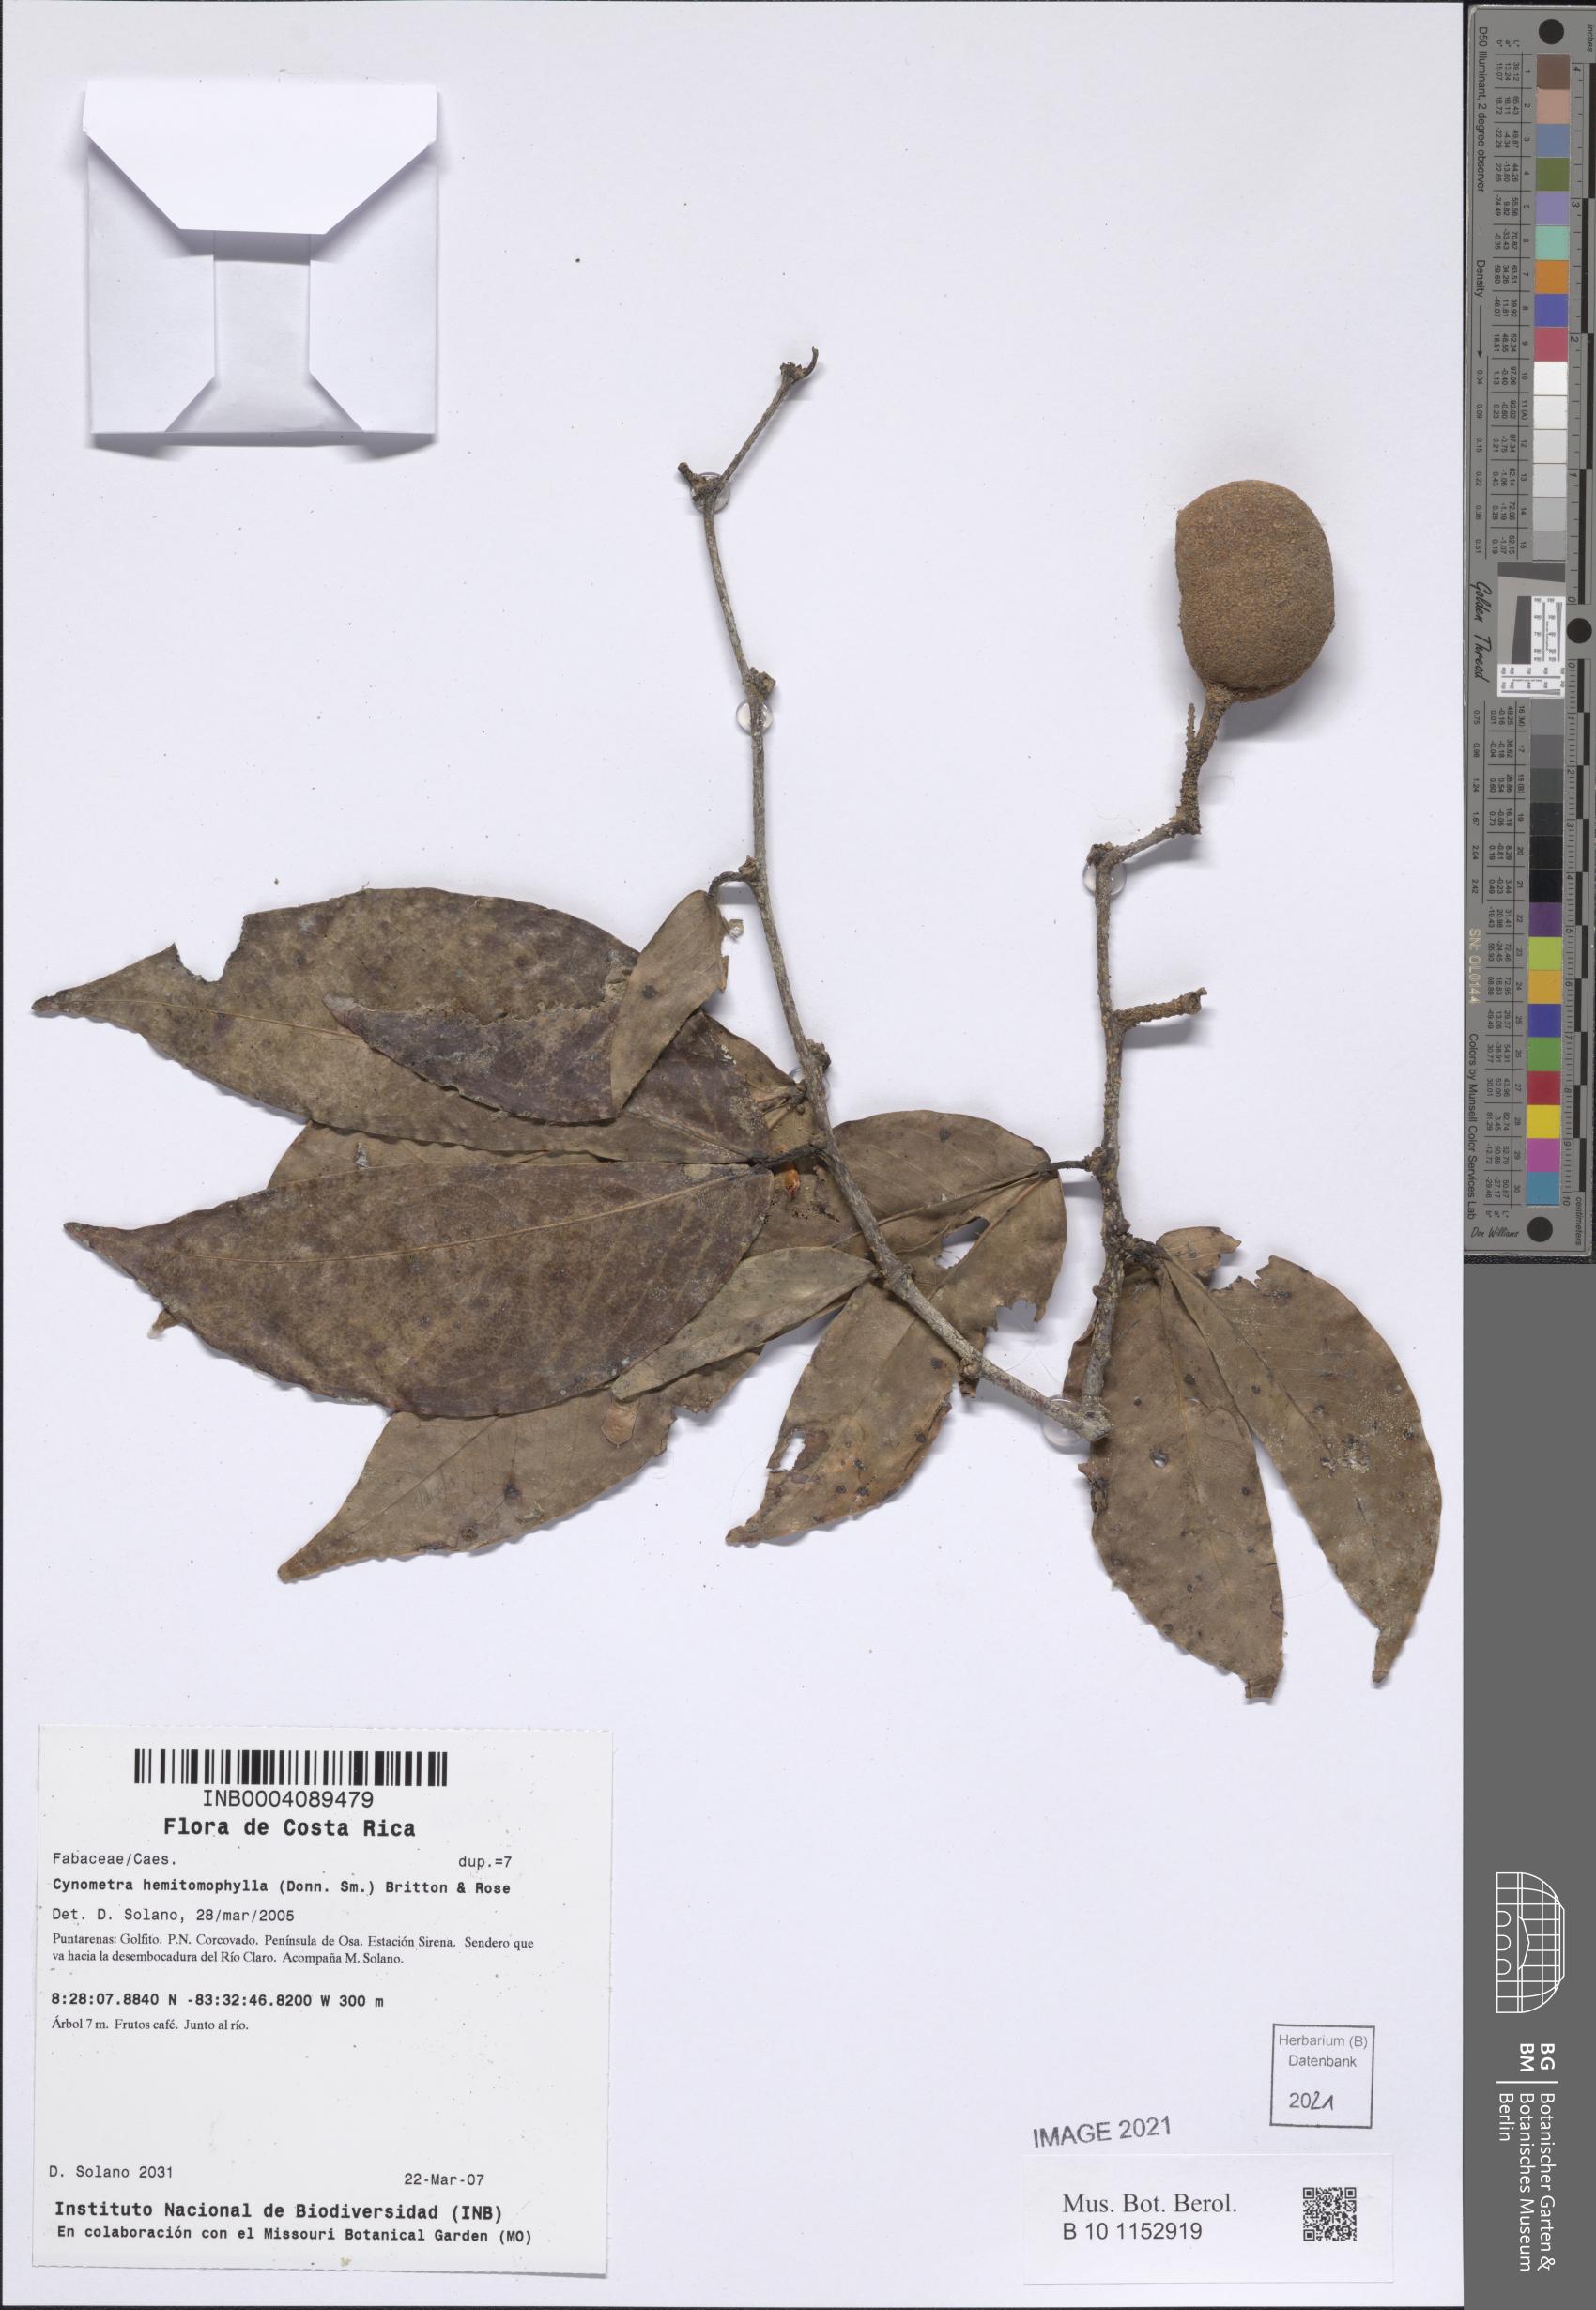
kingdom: Plantae
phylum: Tracheophyta
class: Magnoliopsida
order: Fabales
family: Fabaceae
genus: Cynometra
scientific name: Cynometra hemitomophylla
